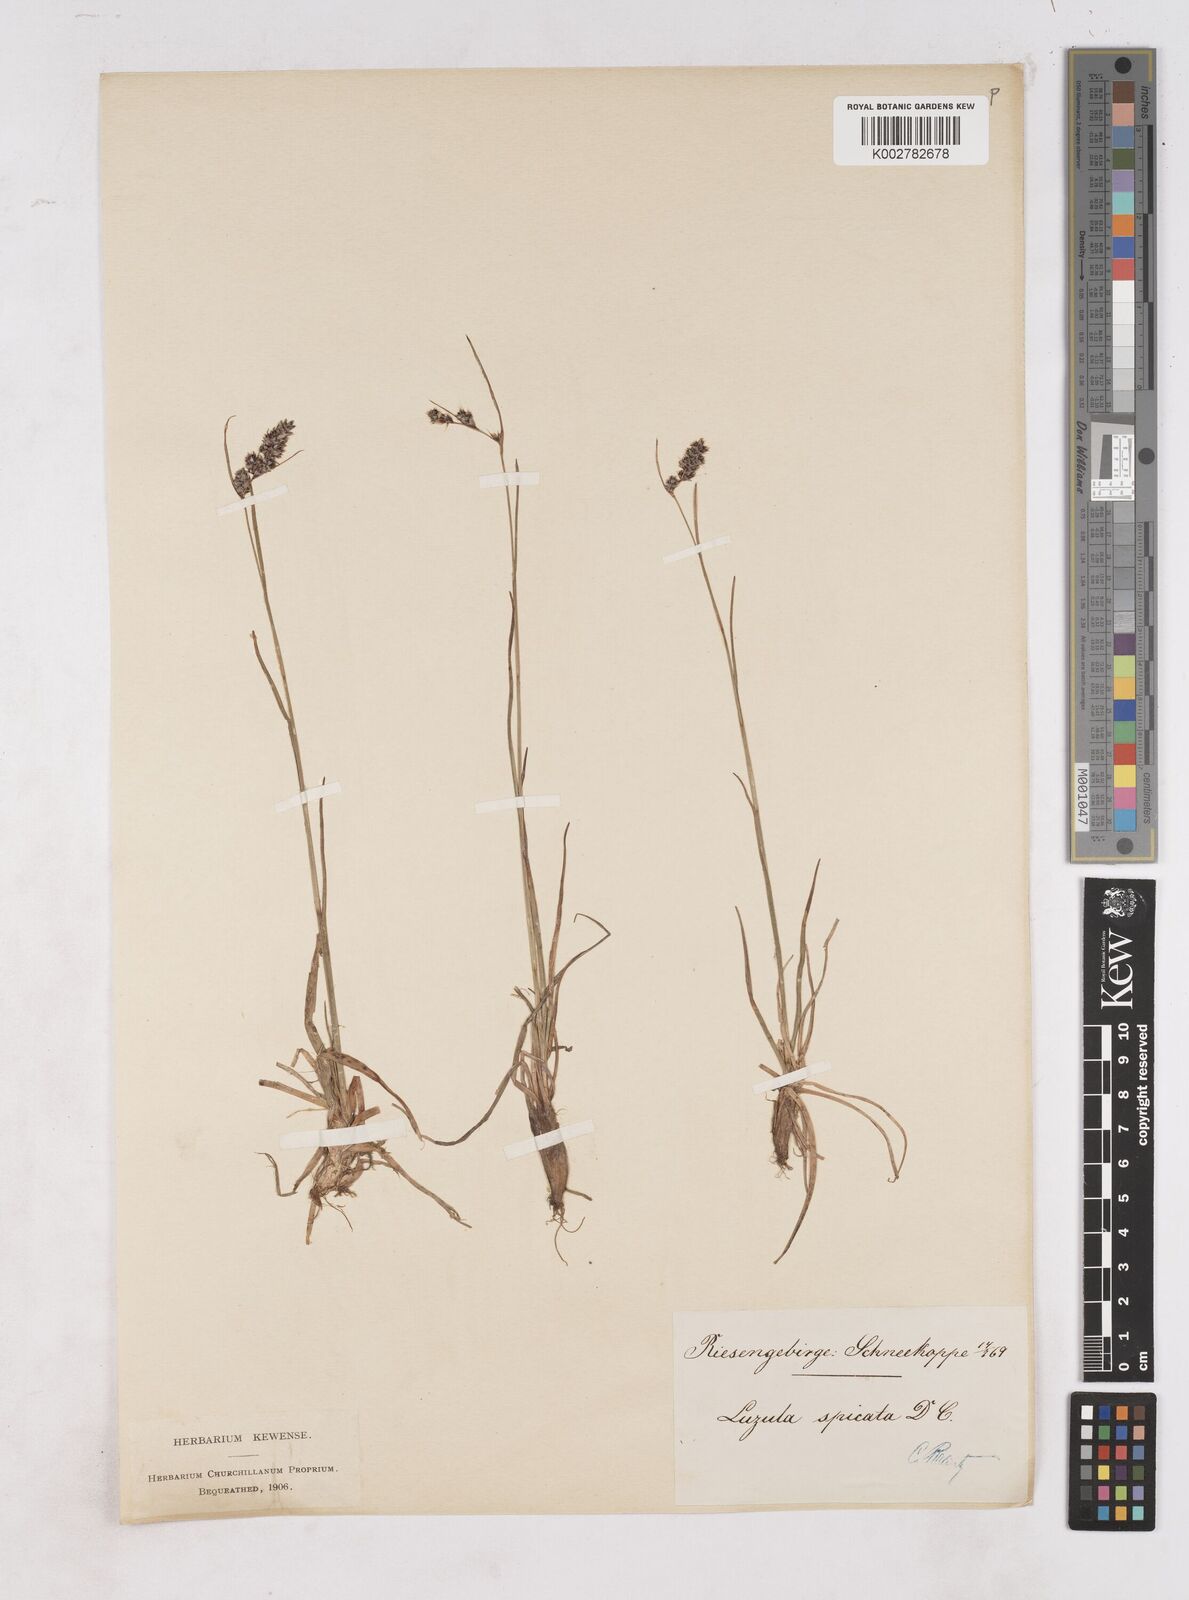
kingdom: Plantae
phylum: Tracheophyta
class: Liliopsida
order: Poales
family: Juncaceae
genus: Luzula
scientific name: Luzula spicata
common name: Spiked wood-rush
